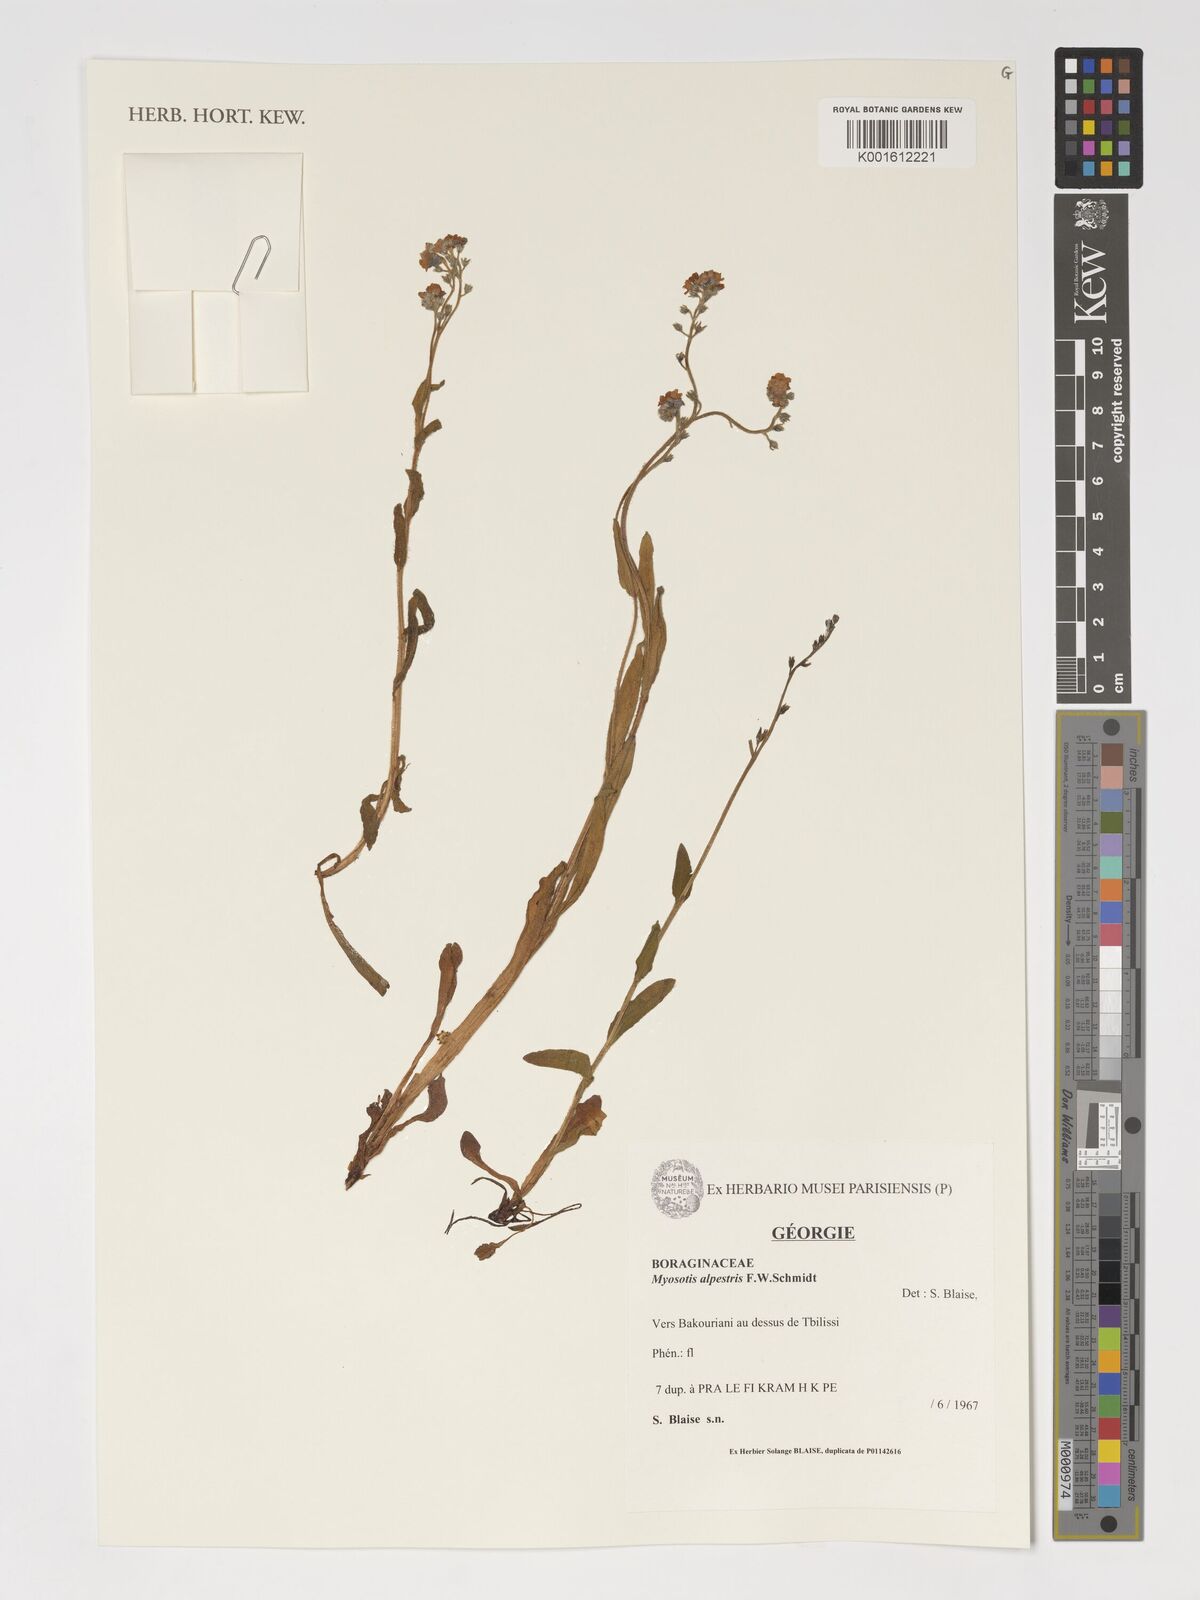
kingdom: Plantae
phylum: Tracheophyta
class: Magnoliopsida
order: Boraginales
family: Boraginaceae
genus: Myosotis
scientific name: Myosotis alpestris
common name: Alpine forget-me-not
